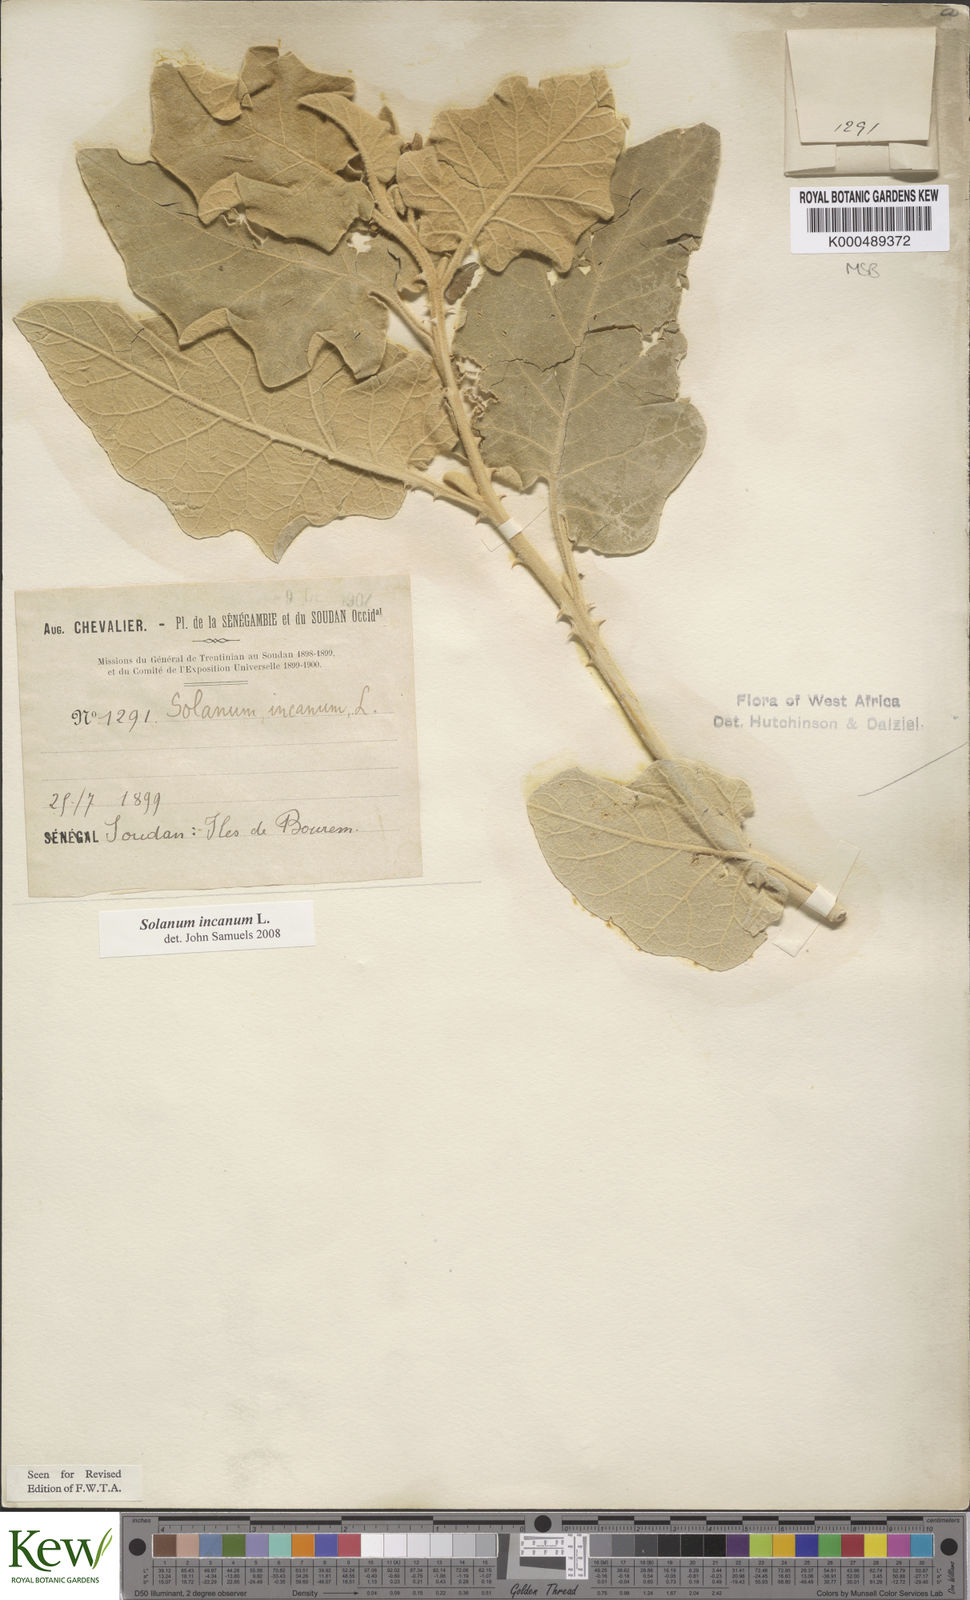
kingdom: Plantae
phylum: Tracheophyta
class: Magnoliopsida
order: Solanales
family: Solanaceae
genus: Solanum
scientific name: Solanum incanum
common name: Bitter apple
